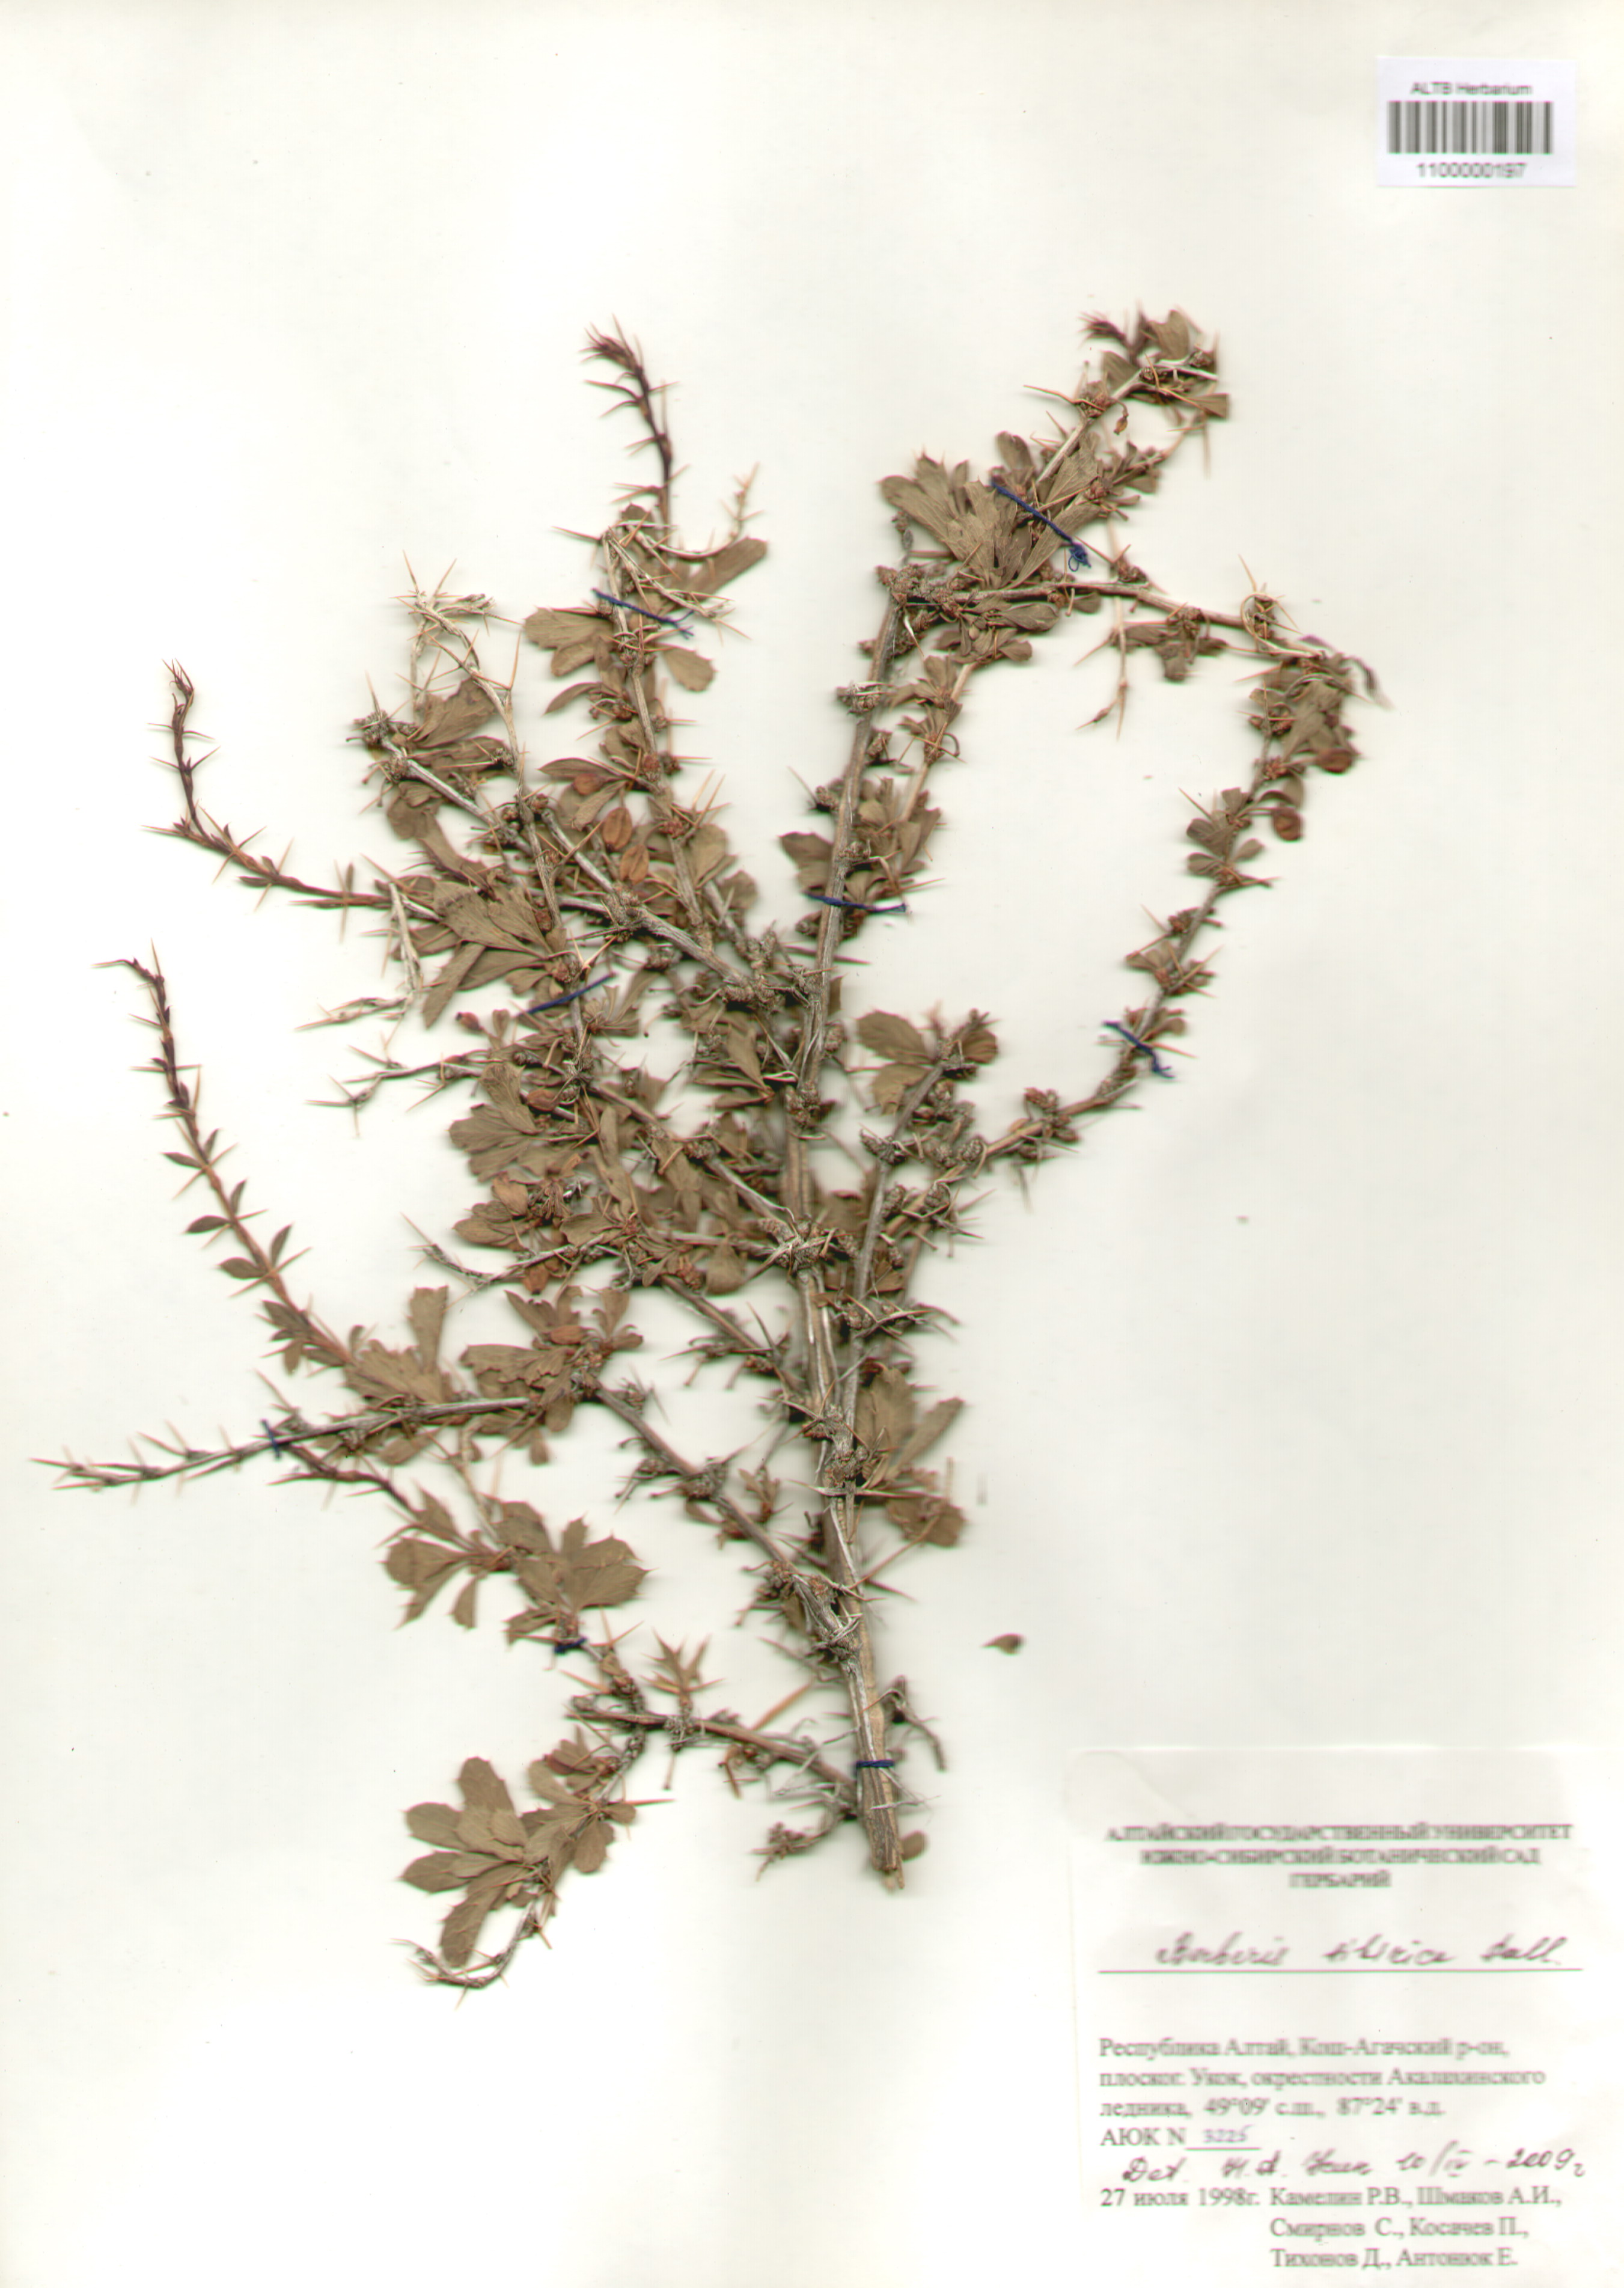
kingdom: Plantae
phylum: Tracheophyta
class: Magnoliopsida
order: Ranunculales
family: Berberidaceae
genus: Berberis
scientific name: Berberis sibirica
